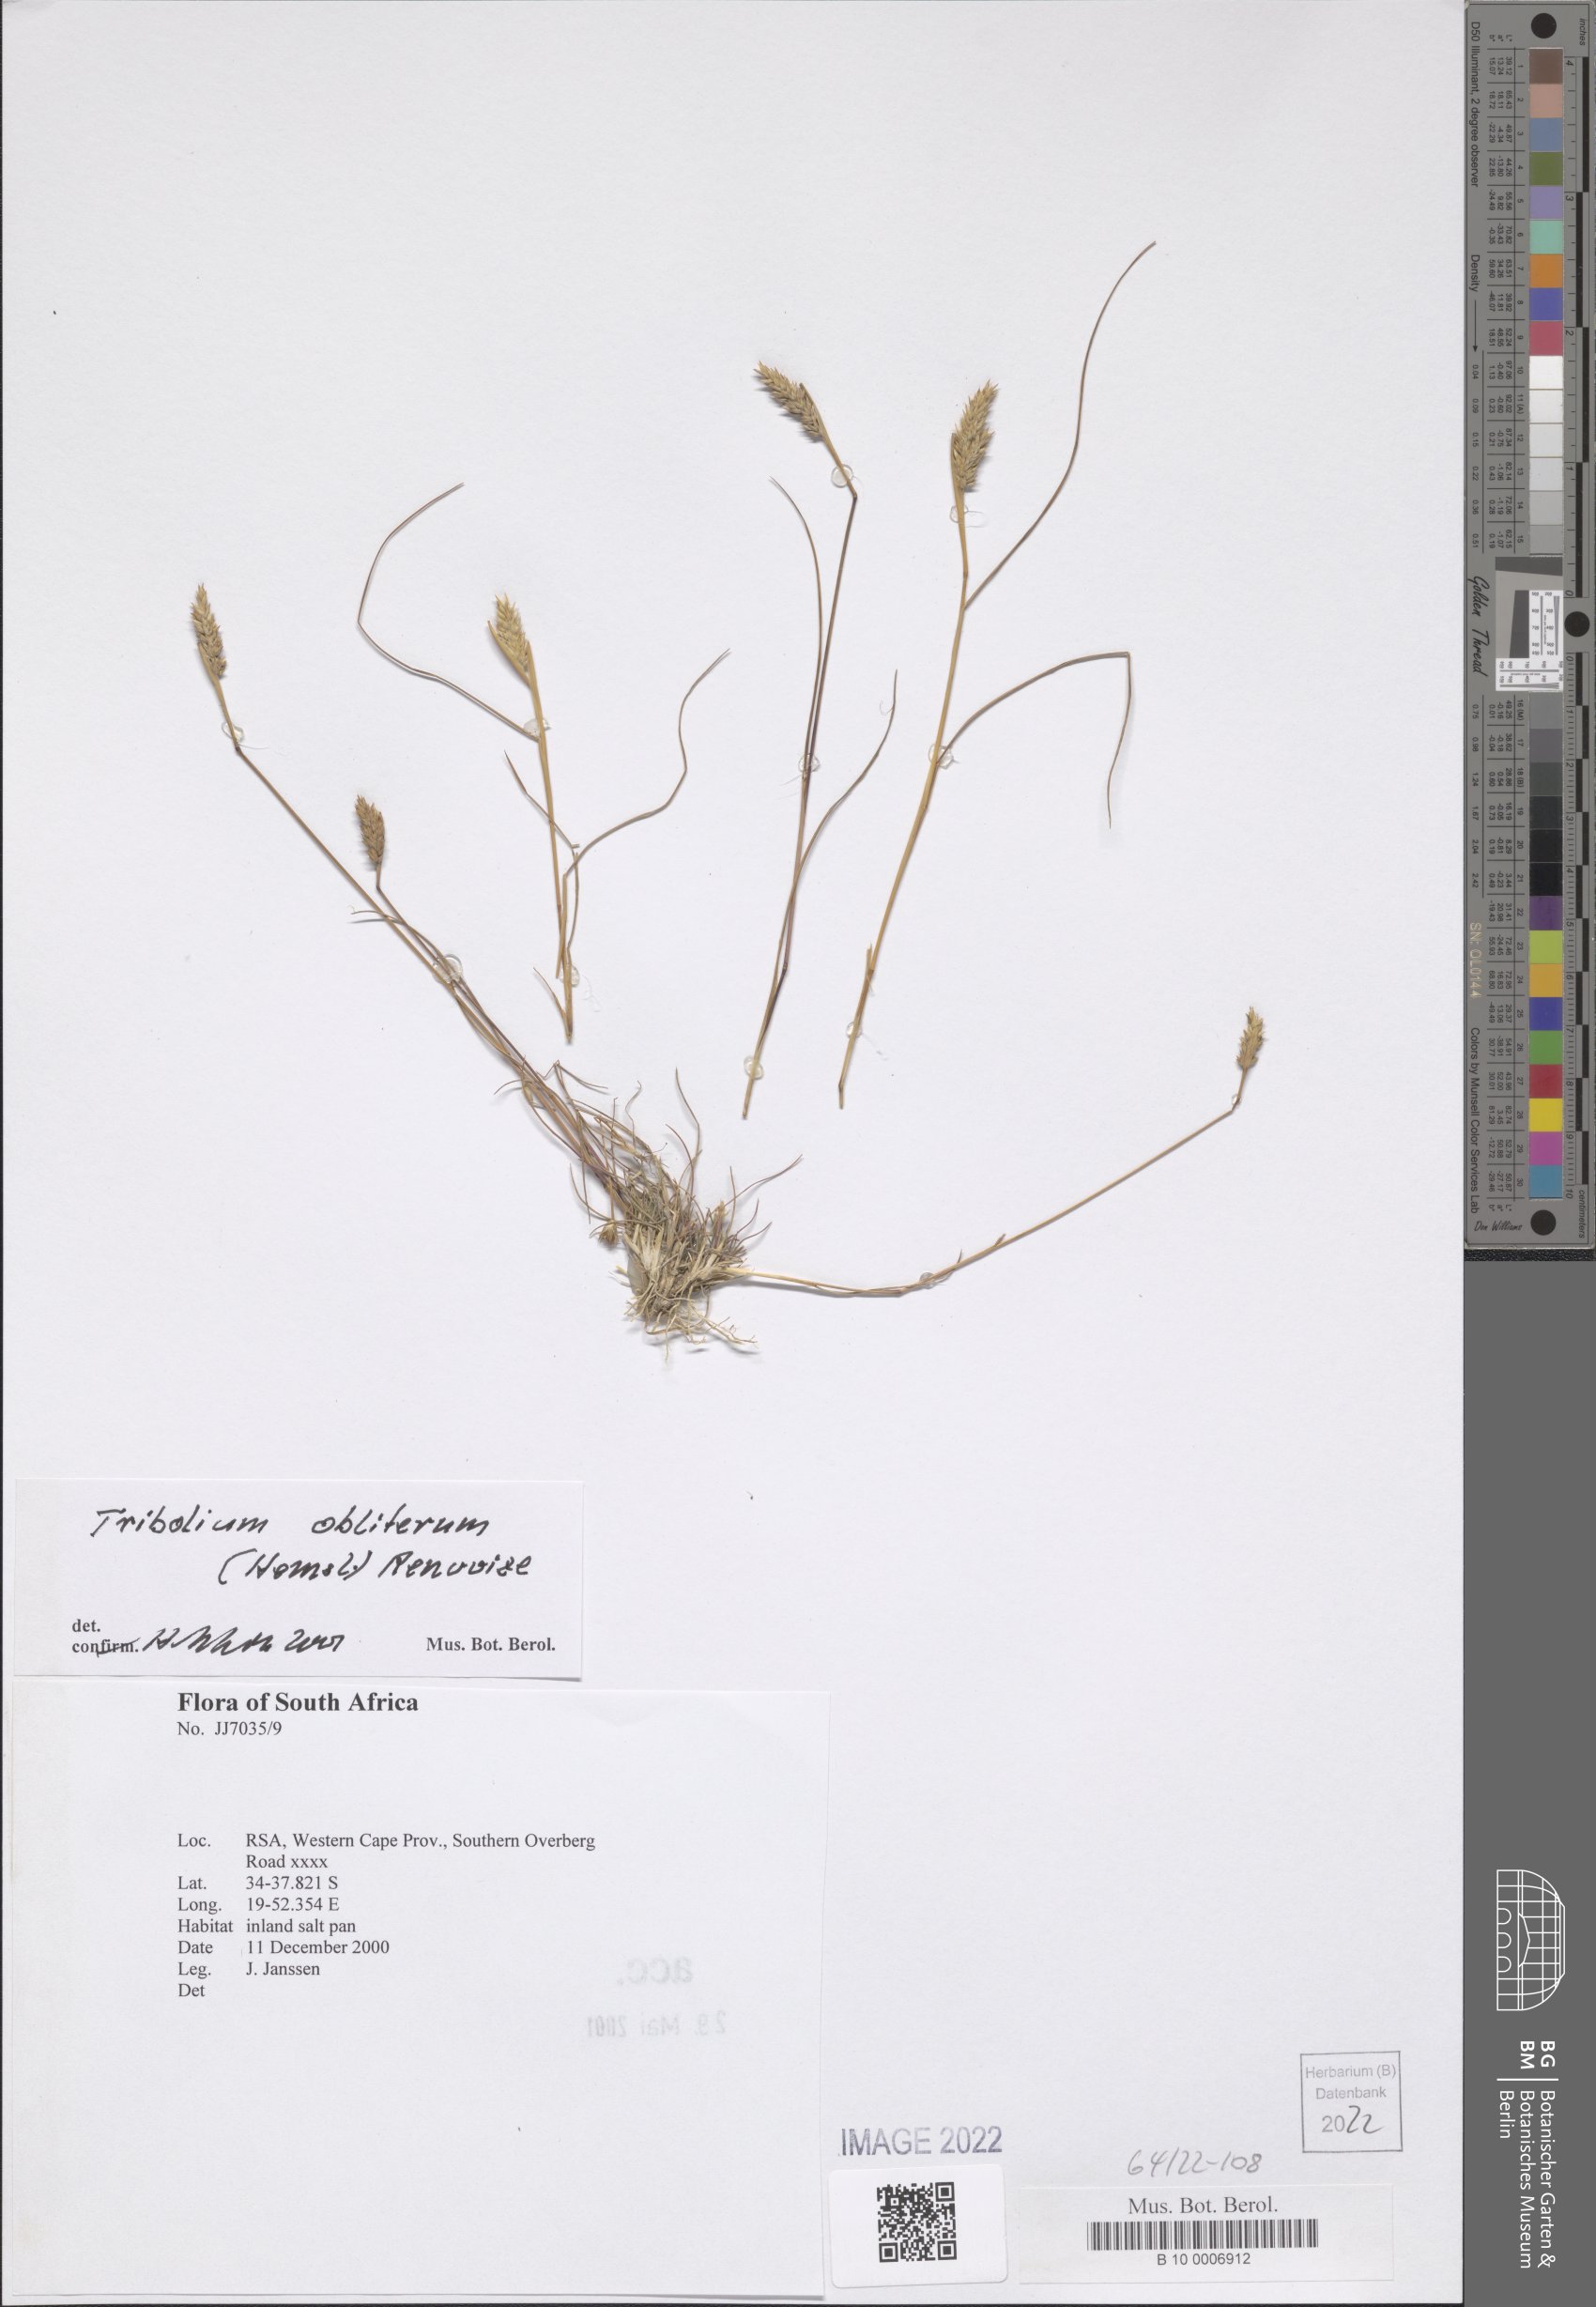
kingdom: Plantae
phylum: Tracheophyta
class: Liliopsida
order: Poales
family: Poaceae
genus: Tribolium
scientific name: Tribolium obliterum
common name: Capetown grass
